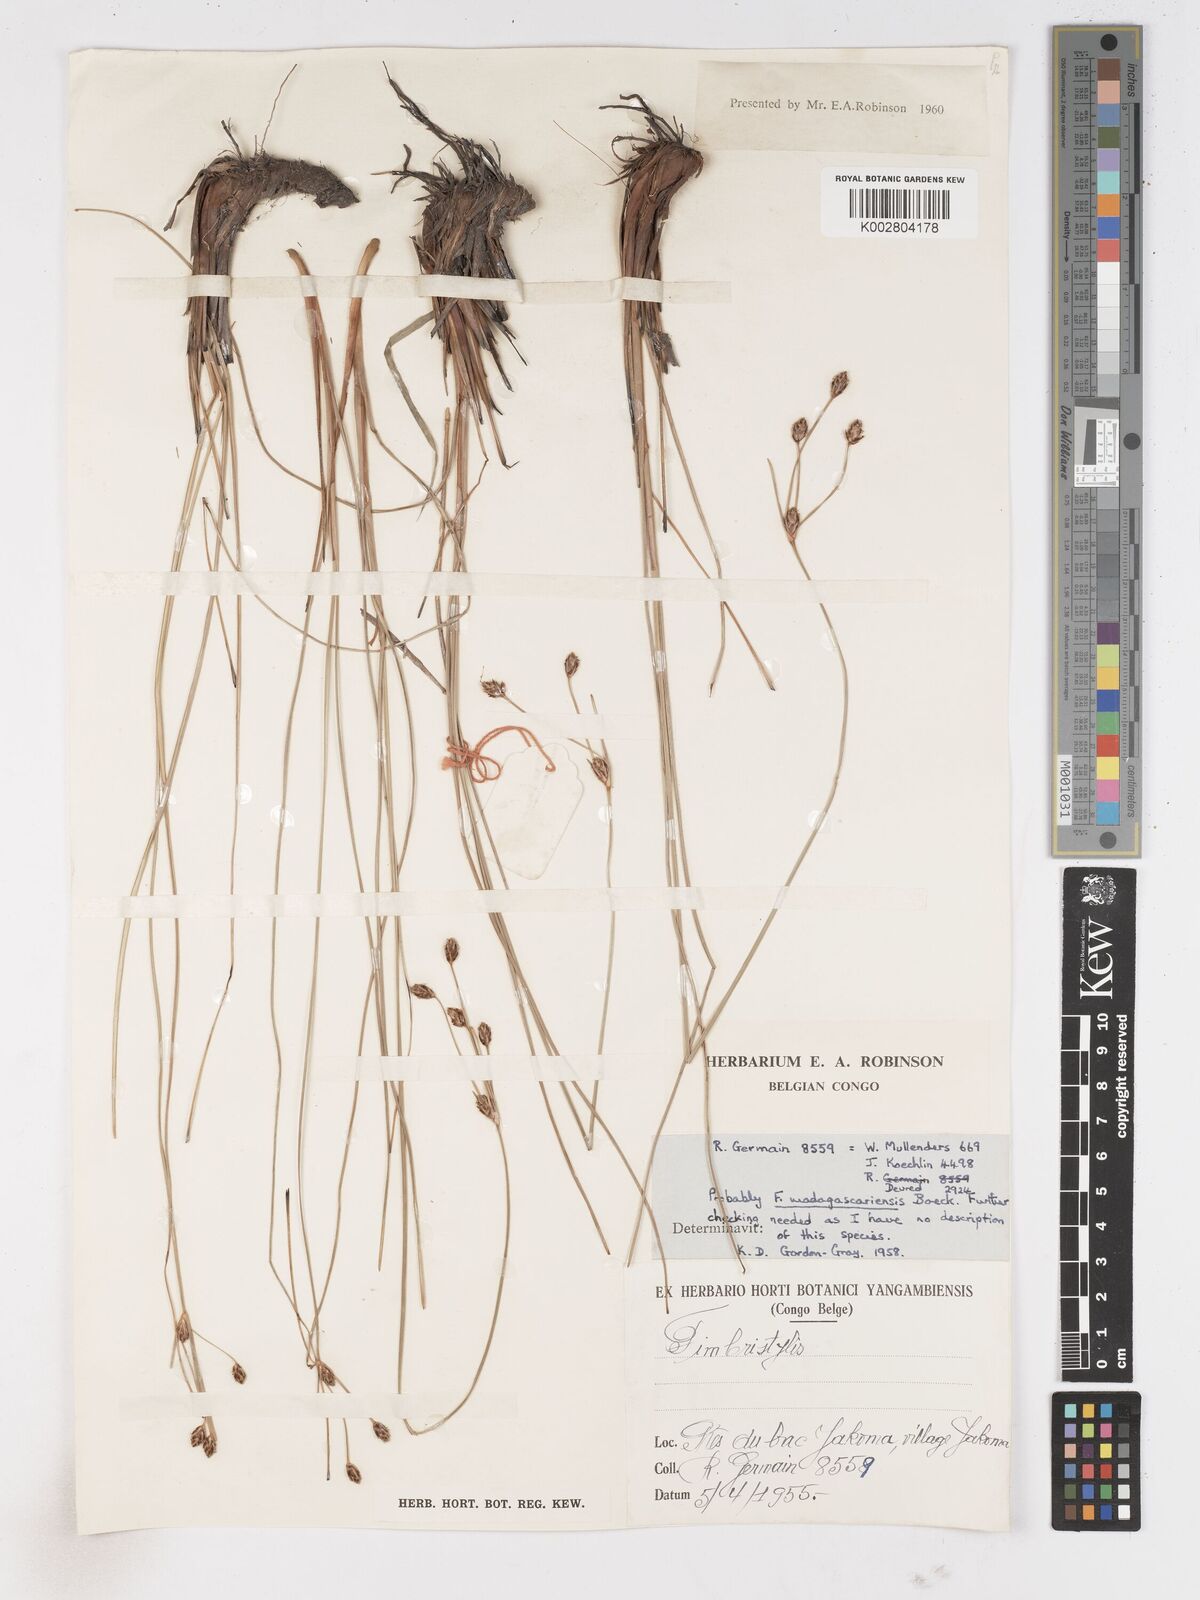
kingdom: Plantae
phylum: Tracheophyta
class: Liliopsida
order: Poales
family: Cyperaceae
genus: Fimbristylis
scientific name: Fimbristylis madagascariensis
